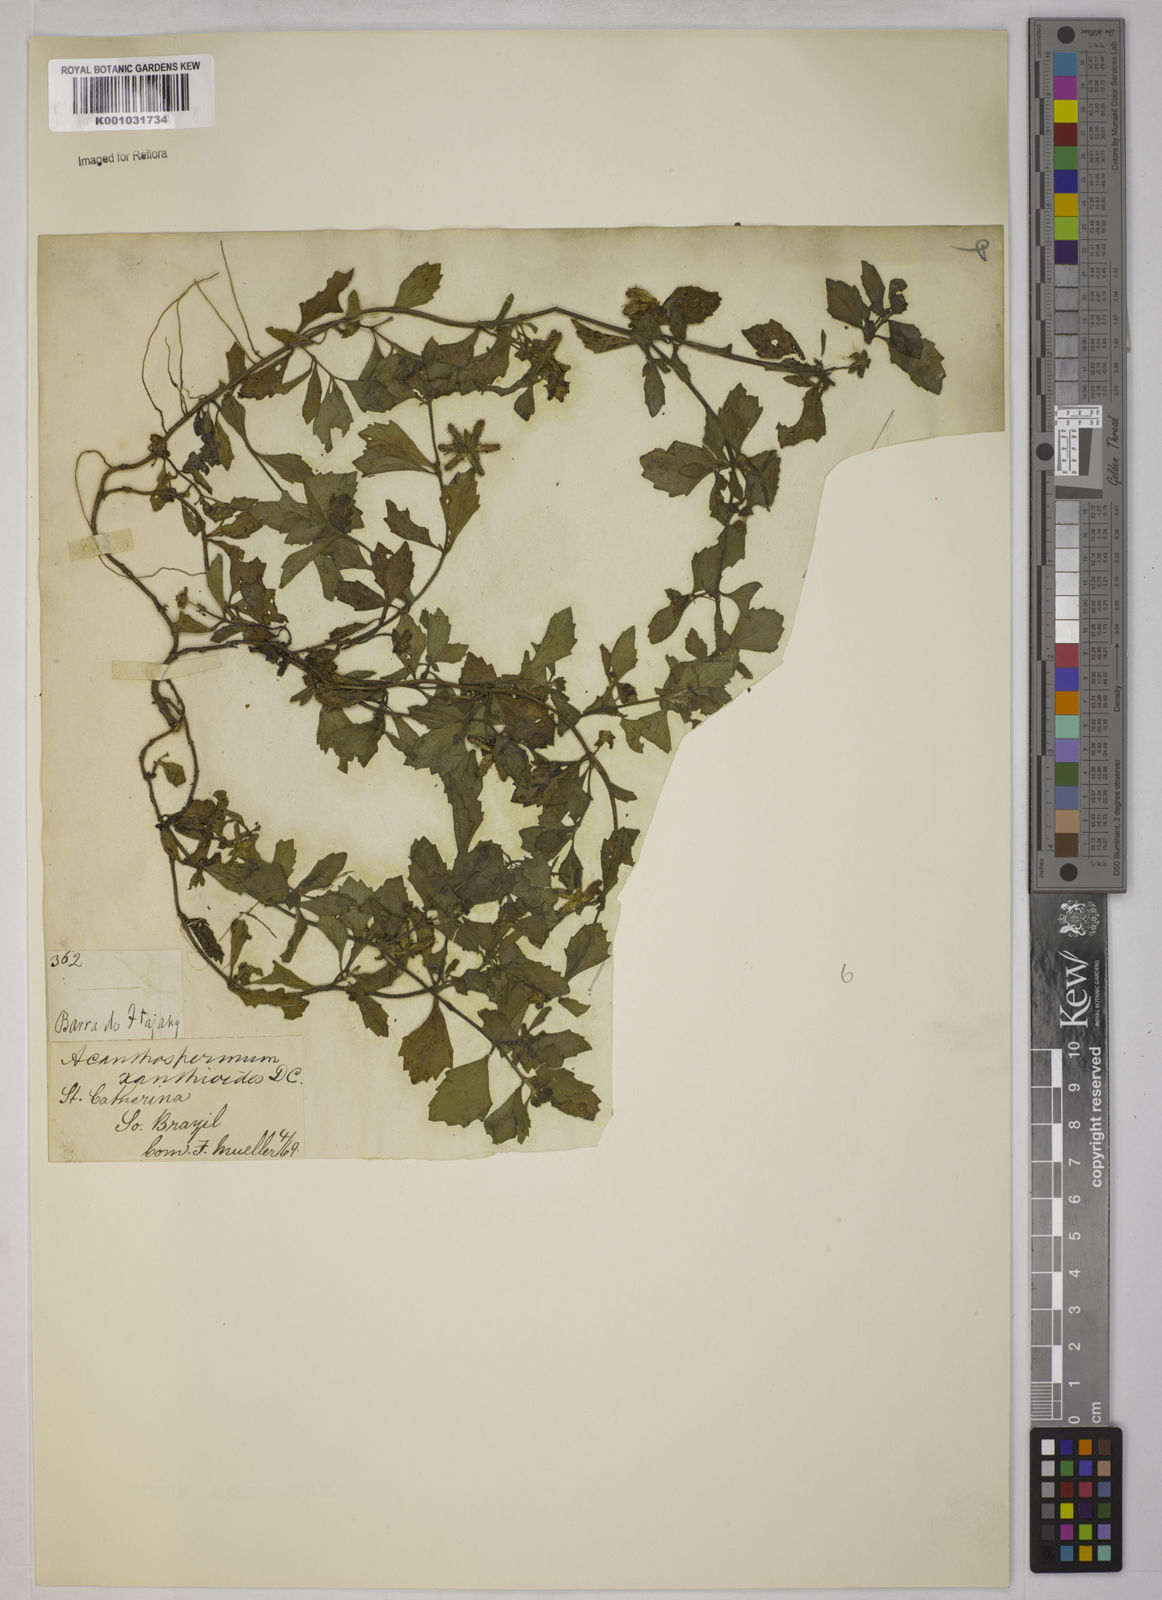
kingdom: Plantae
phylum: Tracheophyta
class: Magnoliopsida
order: Asterales
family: Asteraceae
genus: Acanthospermum
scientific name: Acanthospermum australe
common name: Paraguayan starbur
